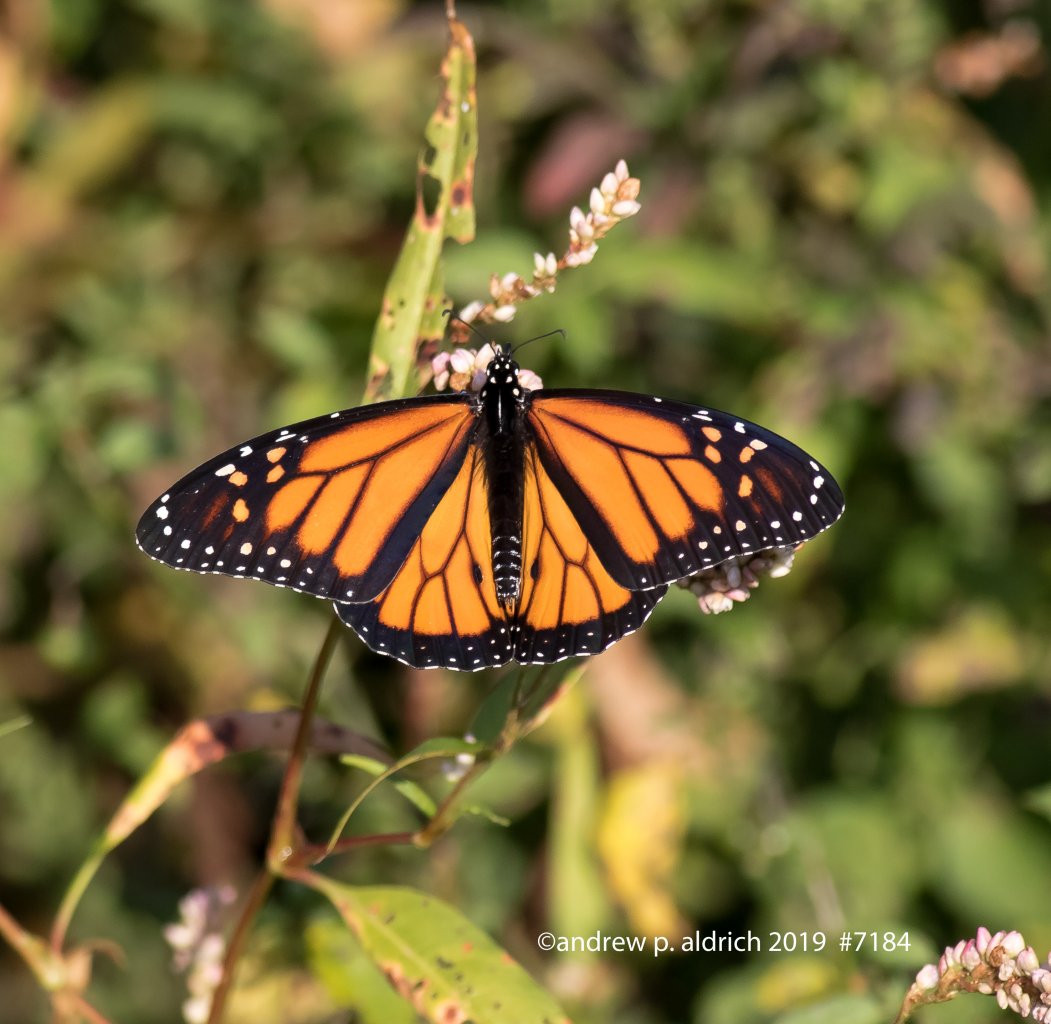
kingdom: Animalia
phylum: Arthropoda
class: Insecta
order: Lepidoptera
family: Nymphalidae
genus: Danaus
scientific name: Danaus plexippus
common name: Monarch
